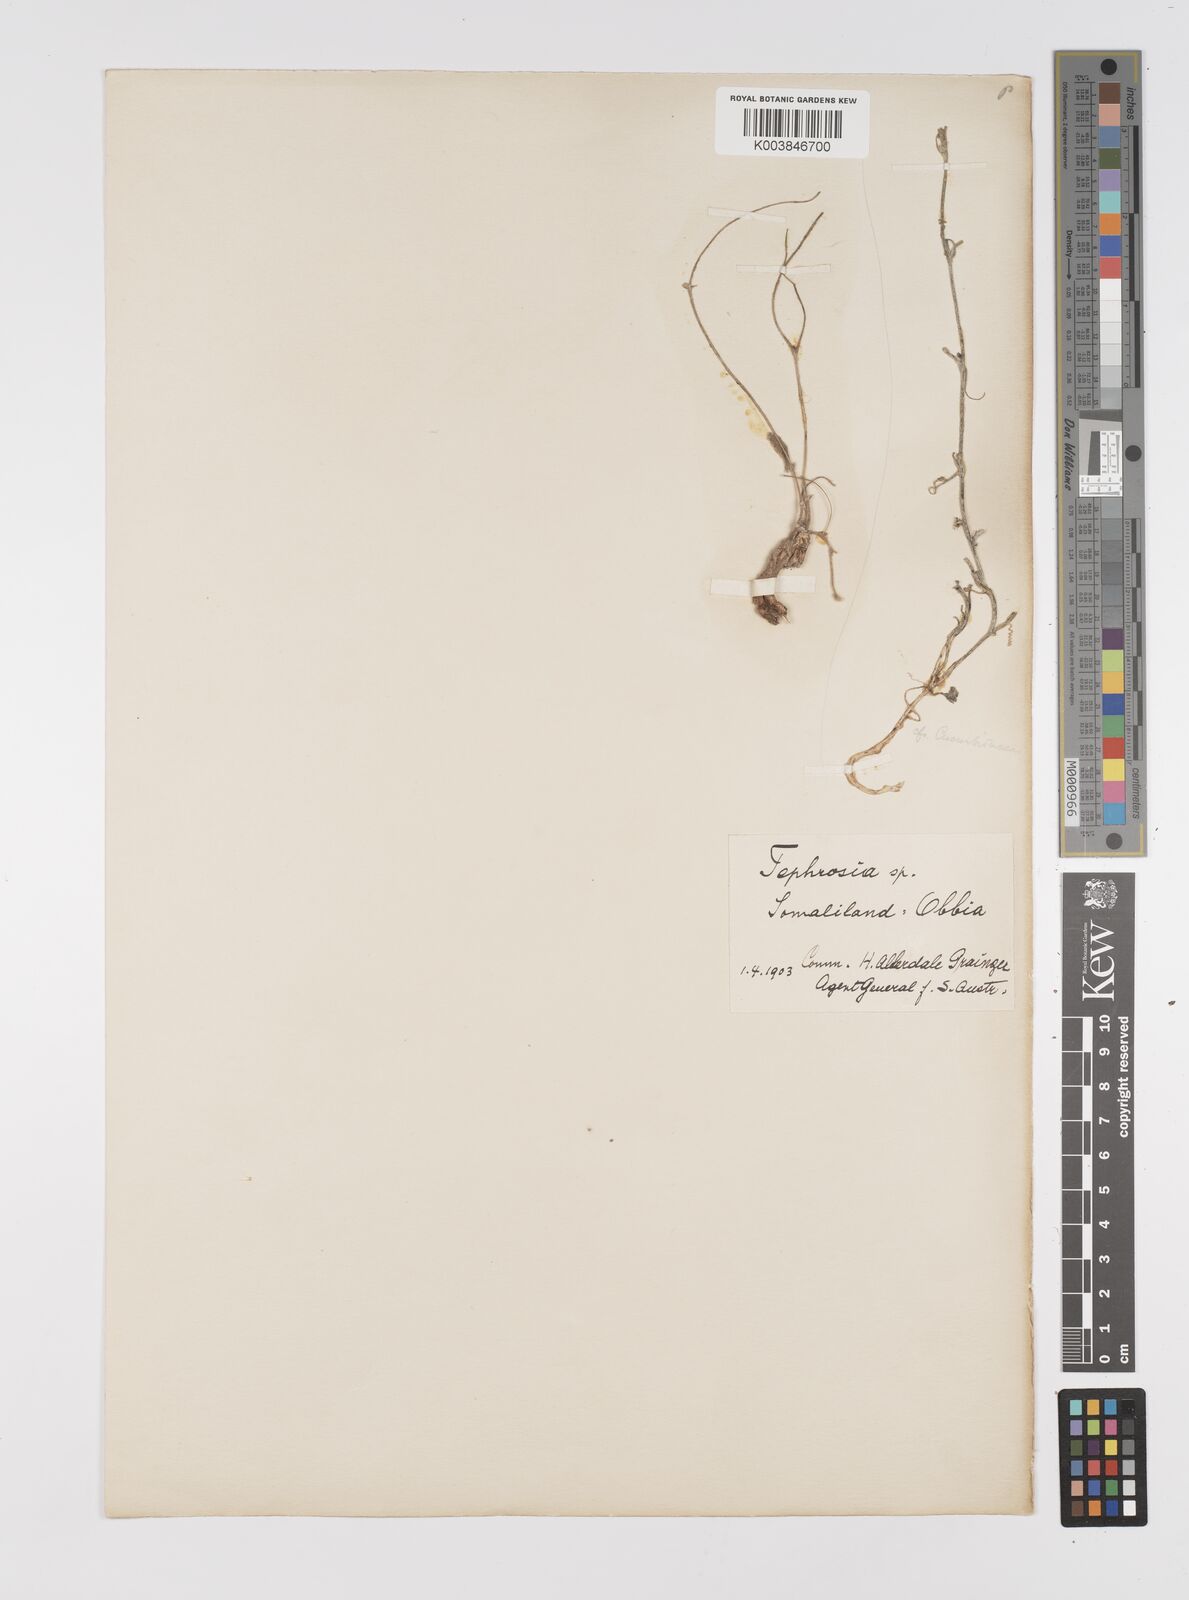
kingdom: Plantae
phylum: Tracheophyta
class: Magnoliopsida
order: Fabales
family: Fabaceae
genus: Tephrosia
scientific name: Tephrosia
